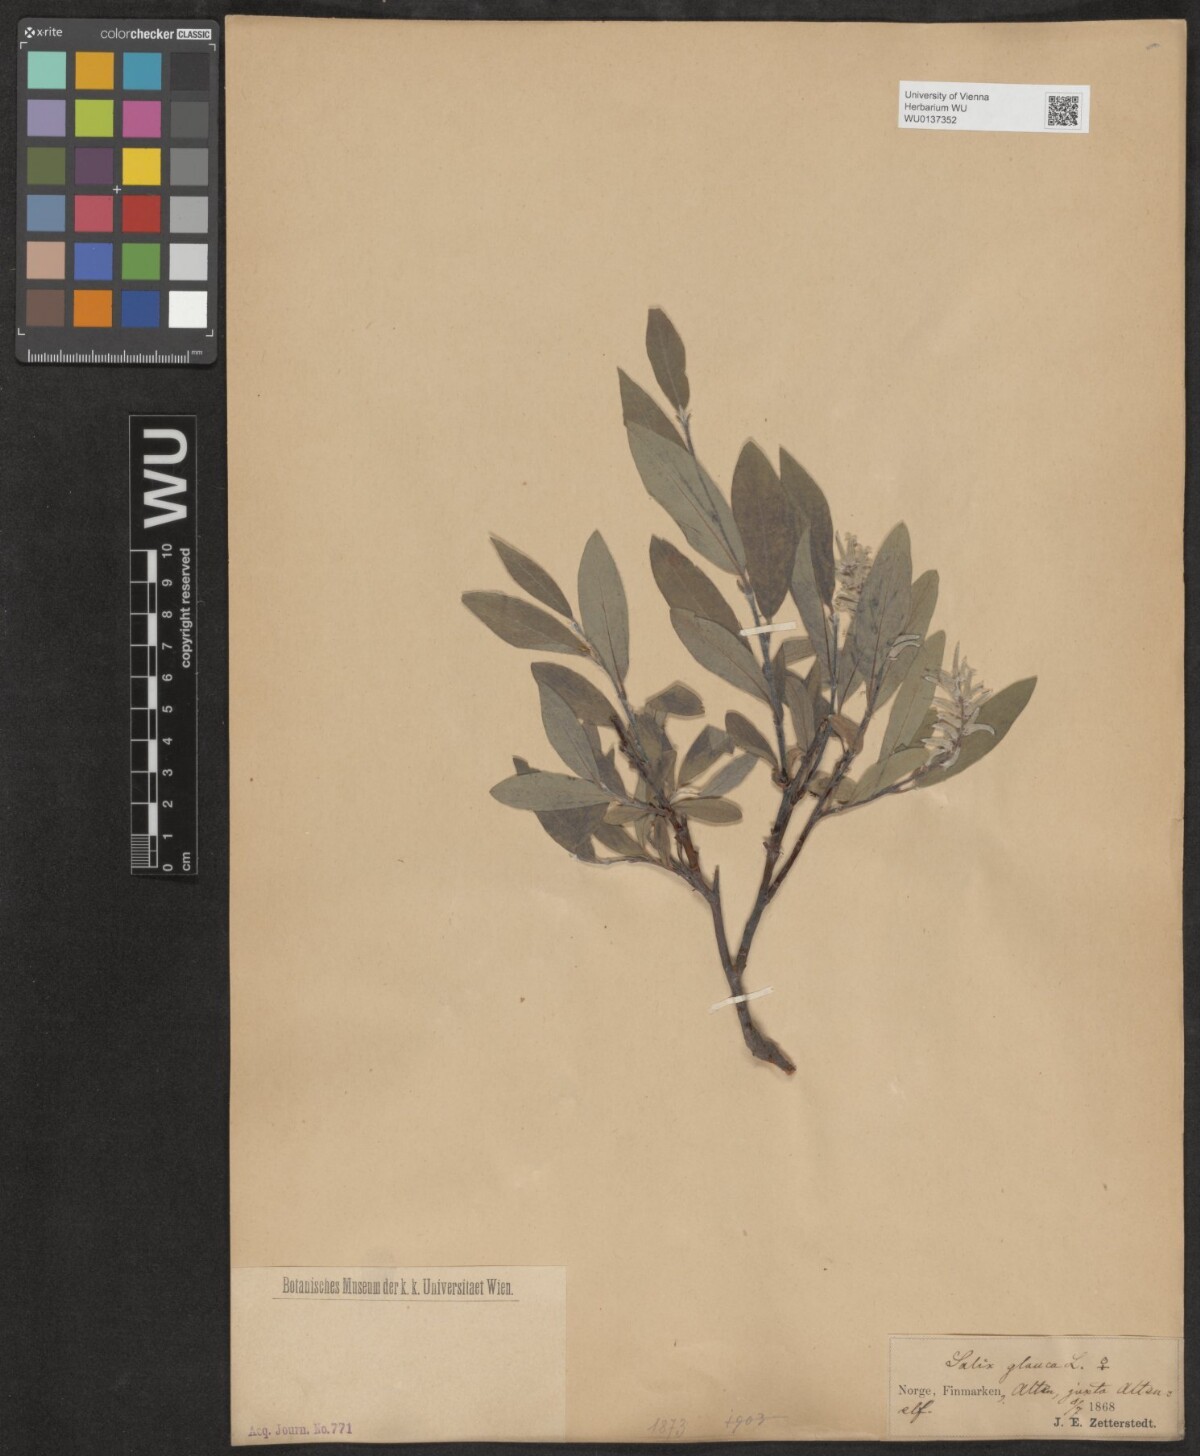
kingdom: Plantae
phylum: Tracheophyta
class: Magnoliopsida
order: Malpighiales
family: Salicaceae
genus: Salix
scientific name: Salix glauca
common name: Glaucous willow
